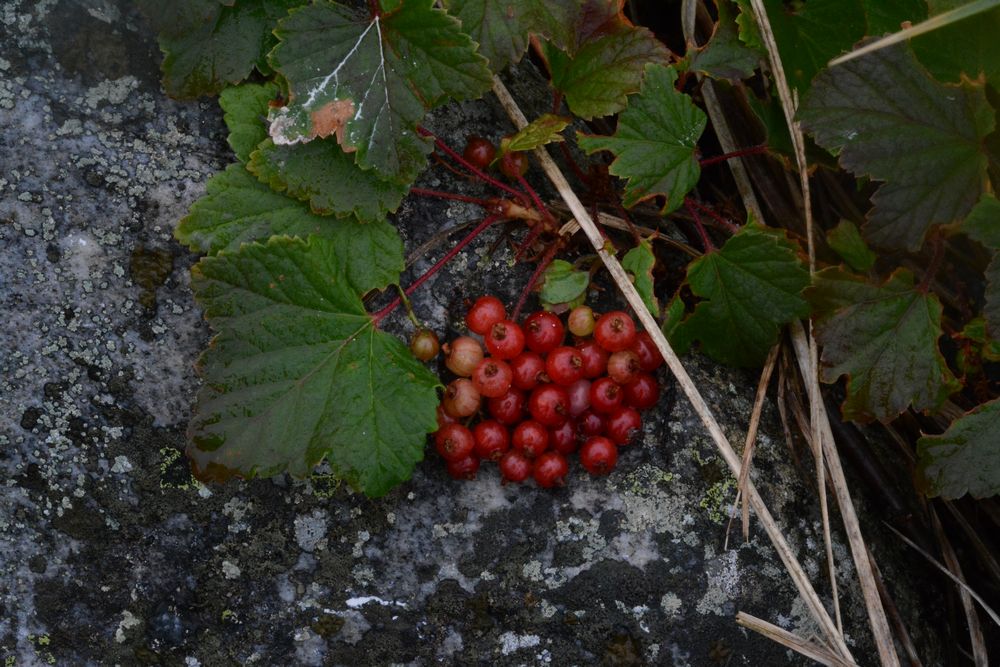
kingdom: Plantae
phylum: Tracheophyta
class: Magnoliopsida
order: Saxifragales
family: Grossulariaceae
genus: Ribes
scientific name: Ribes
